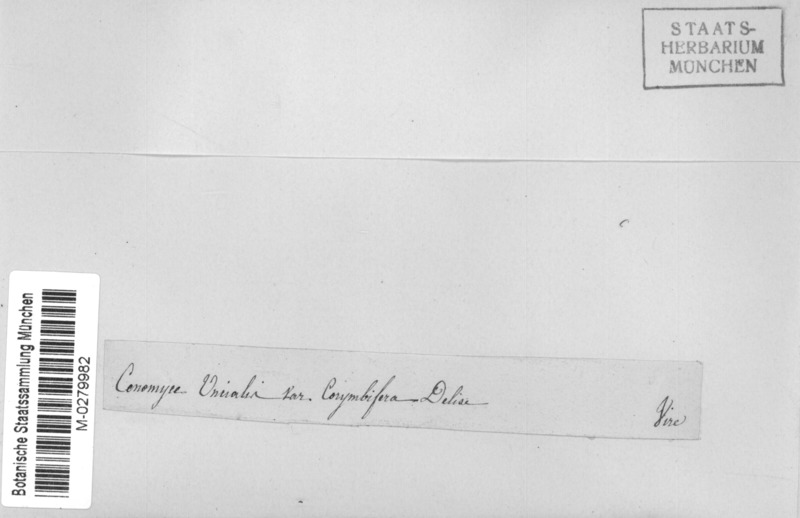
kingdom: Fungi
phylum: Ascomycota
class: Lecanoromycetes
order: Lecanorales
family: Cladoniaceae
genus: Cladonia
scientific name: Cladonia uncialis
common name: Thorn lichen
